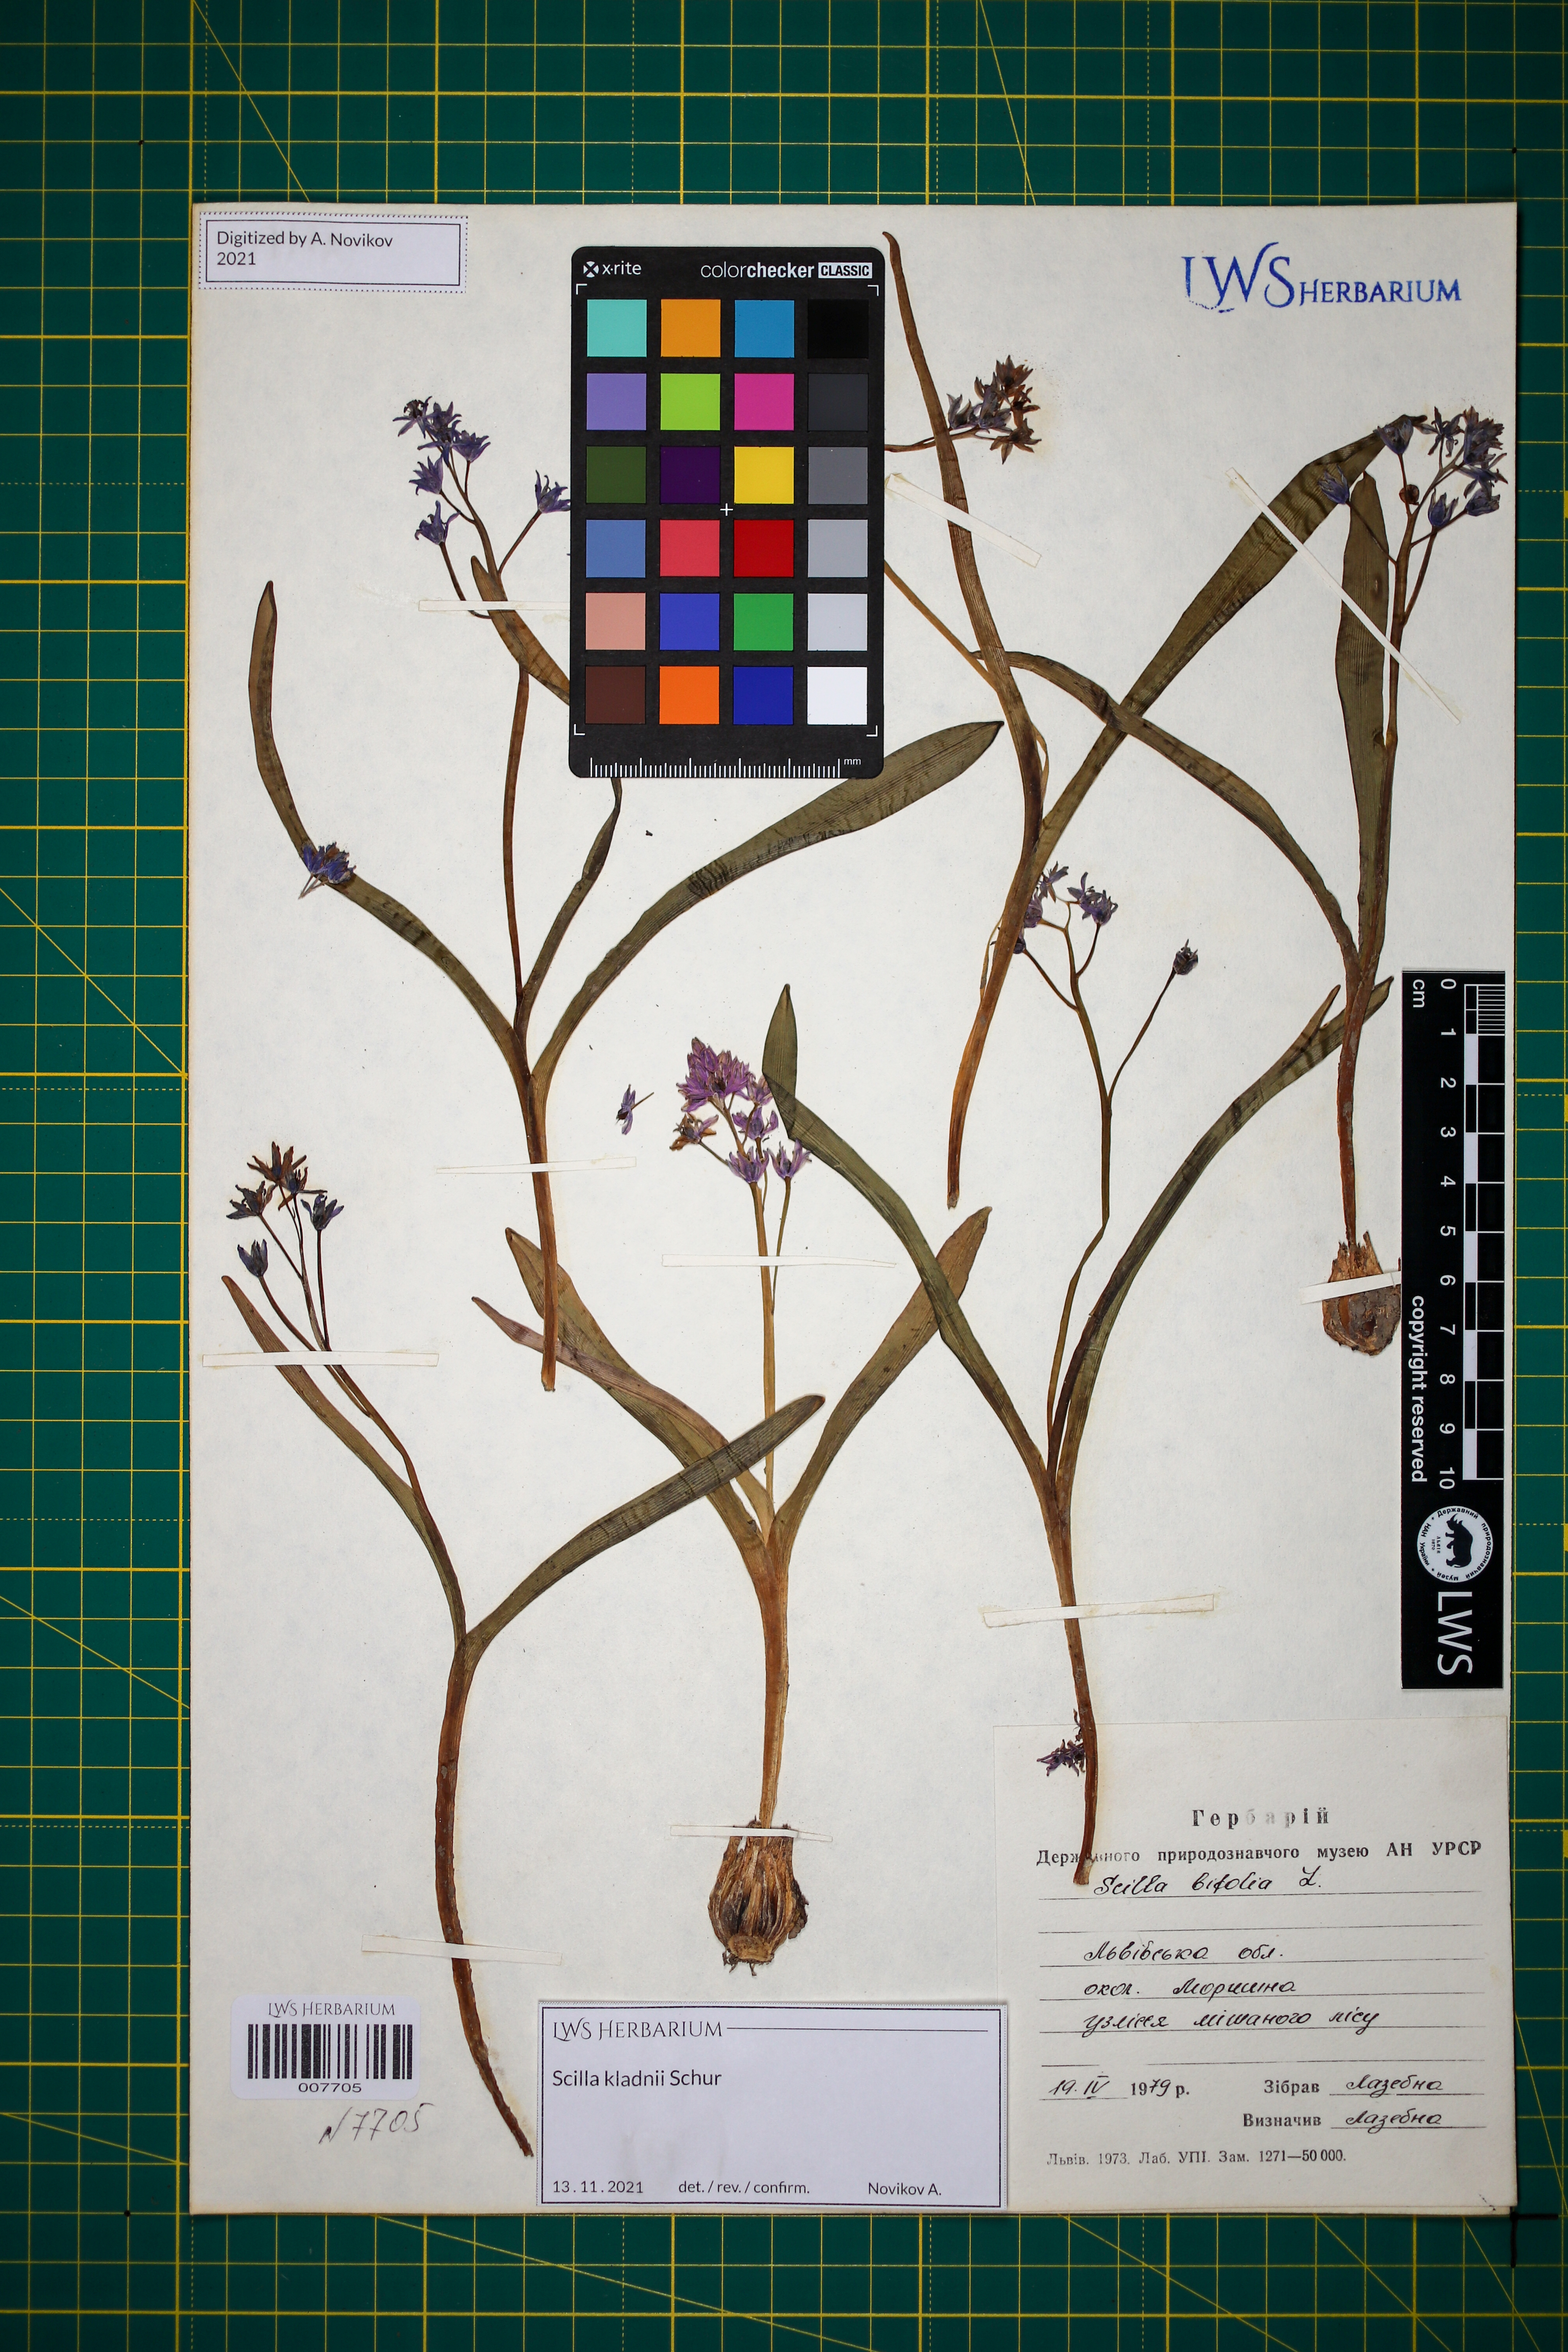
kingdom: Plantae
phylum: Tracheophyta
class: Liliopsida
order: Asparagales
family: Asparagaceae
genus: Scilla
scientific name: Scilla kladnii
